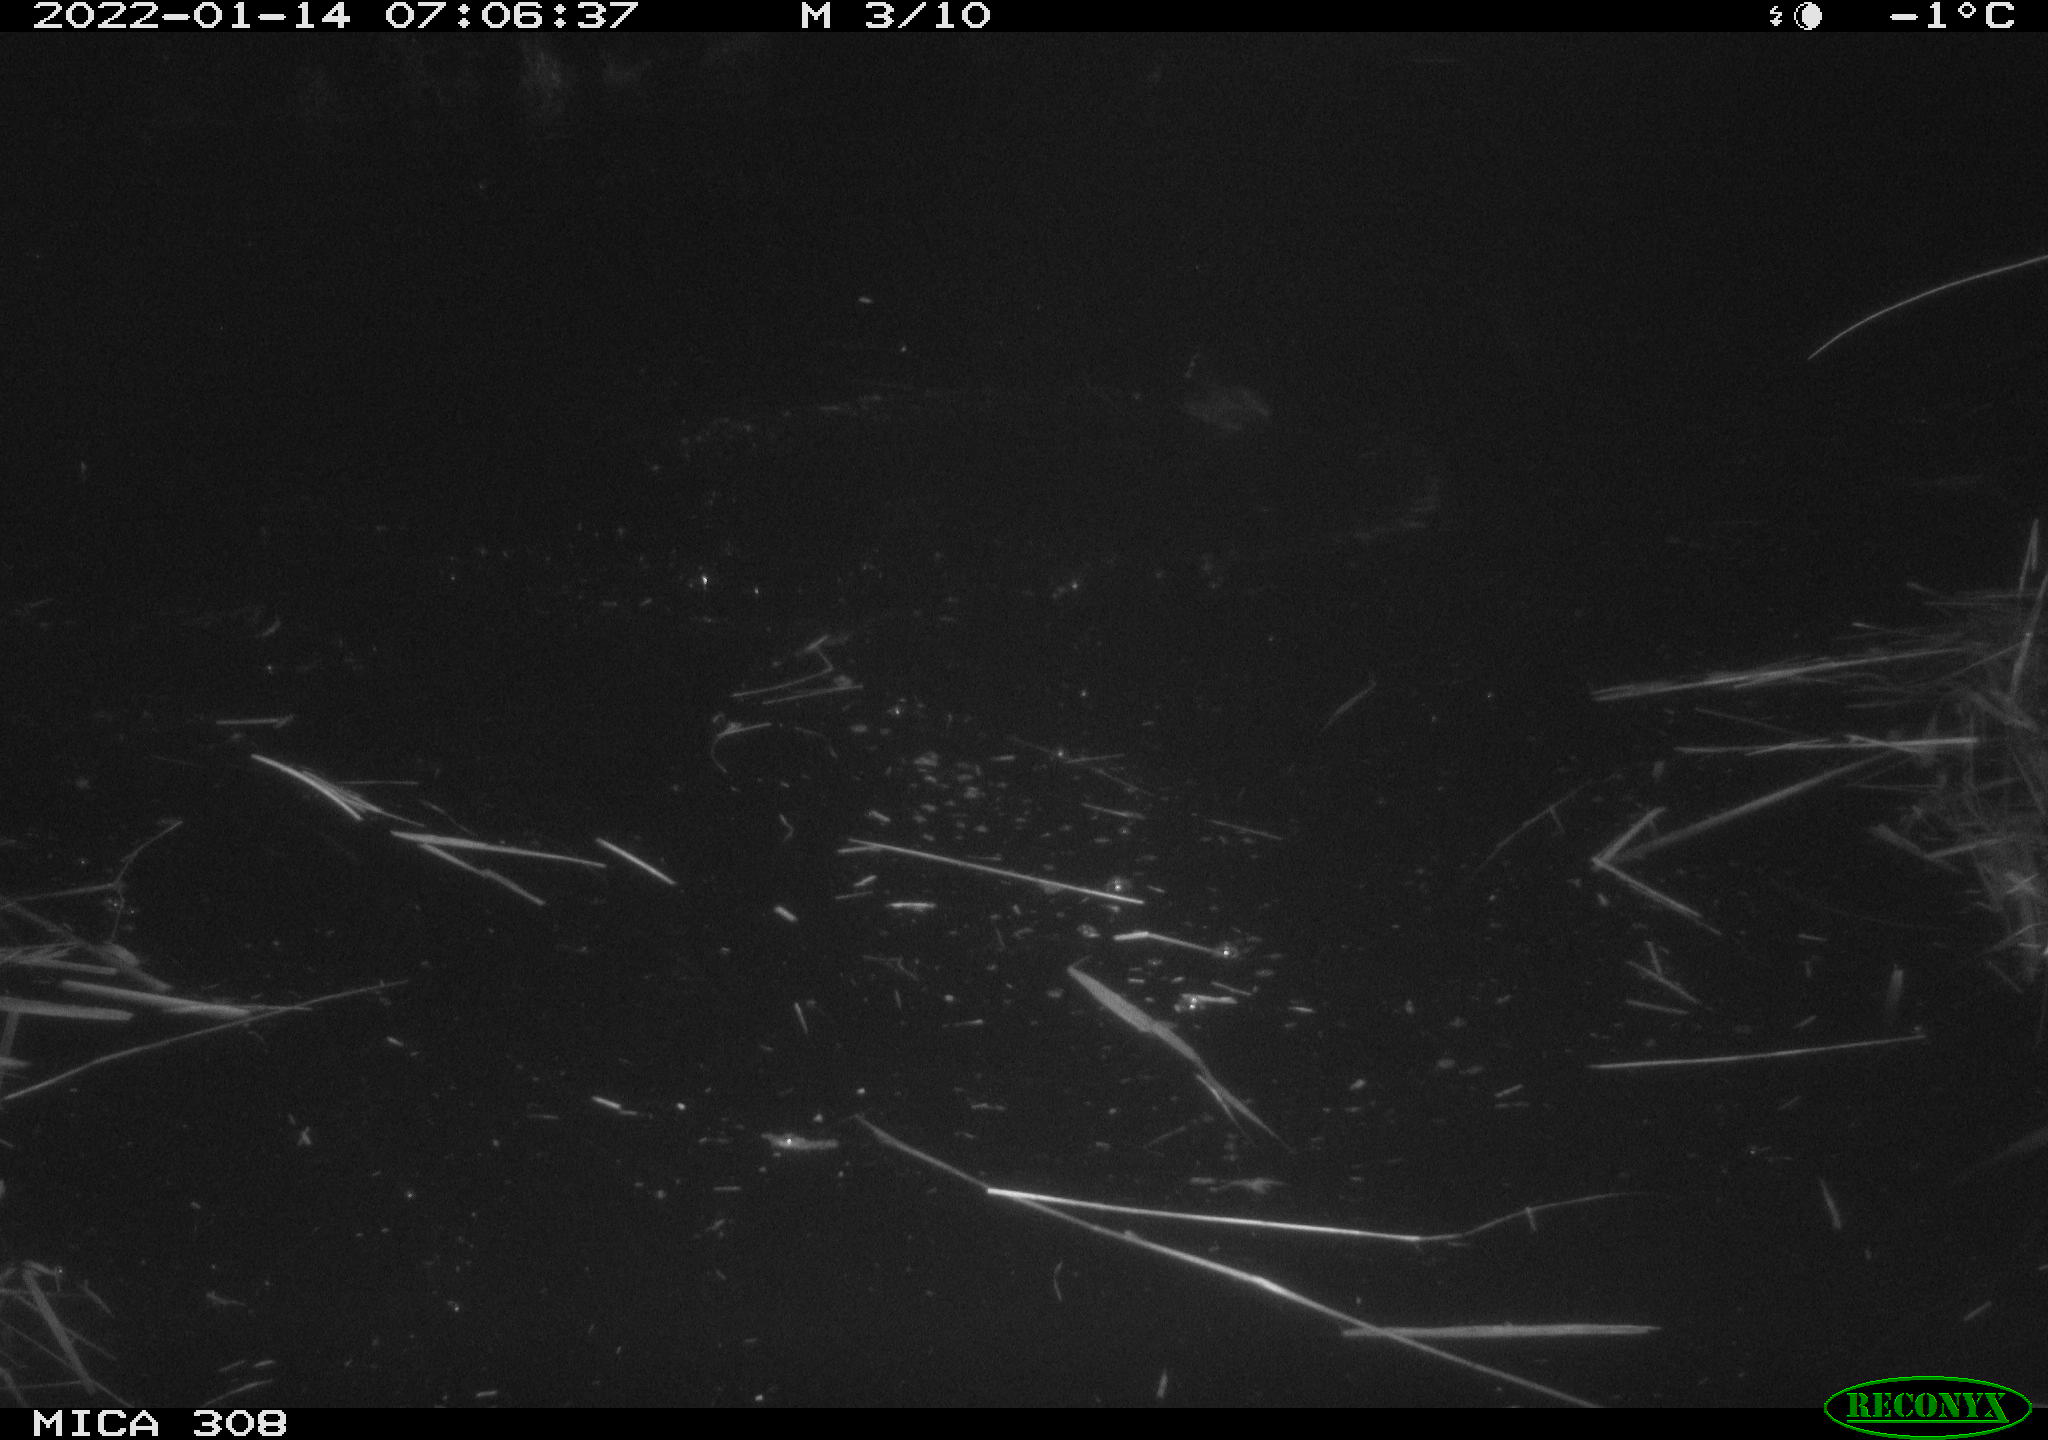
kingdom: Animalia
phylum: Chordata
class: Aves
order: Gruiformes
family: Rallidae
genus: Gallinula
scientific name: Gallinula chloropus
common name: Common moorhen
